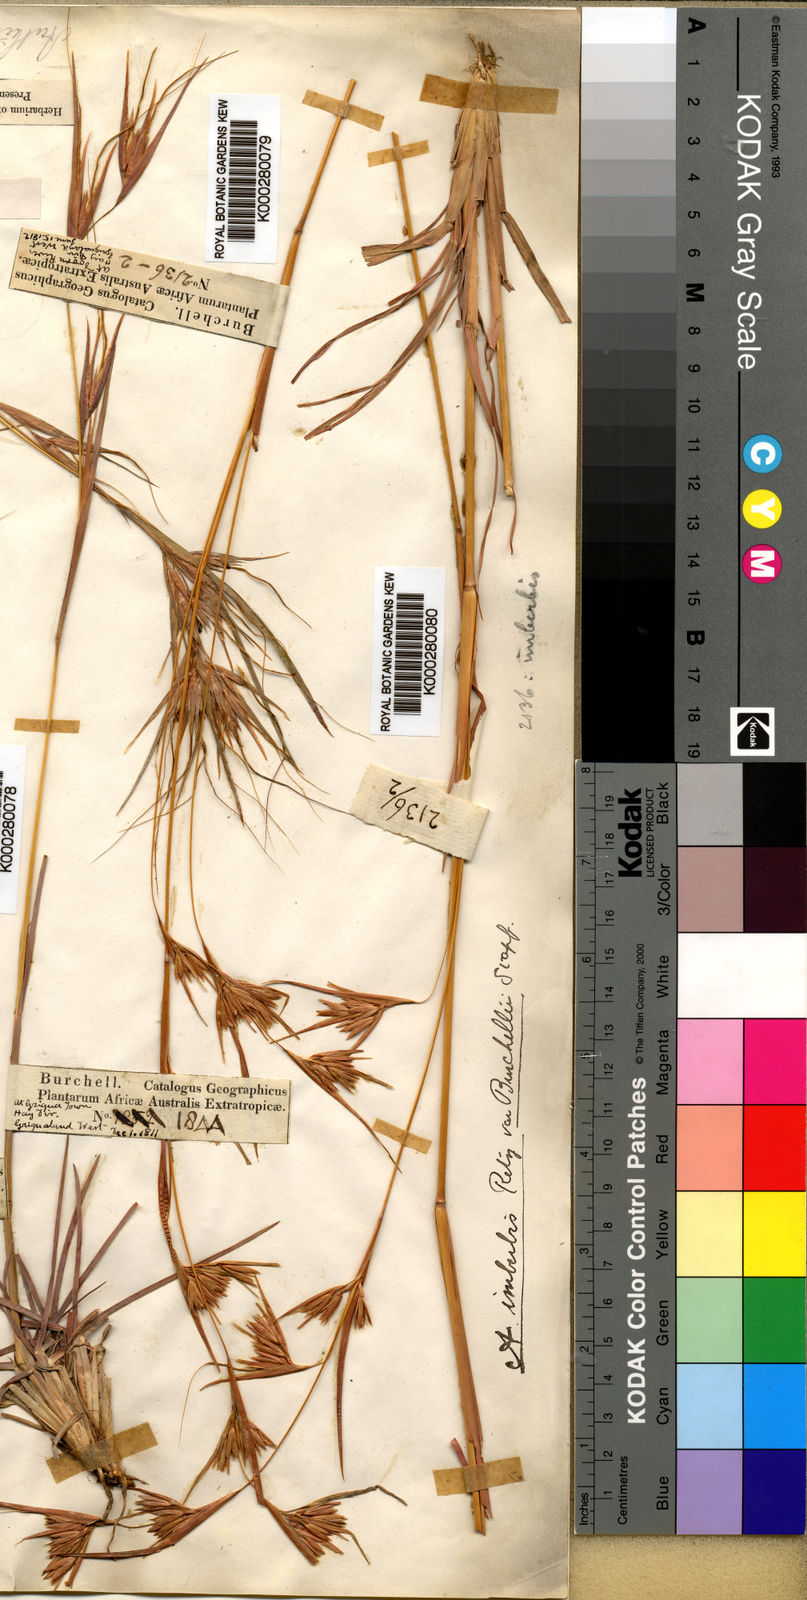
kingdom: Plantae
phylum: Tracheophyta
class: Liliopsida
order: Poales
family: Poaceae
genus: Themeda
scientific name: Themeda triandra
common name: Kangaroo grass
